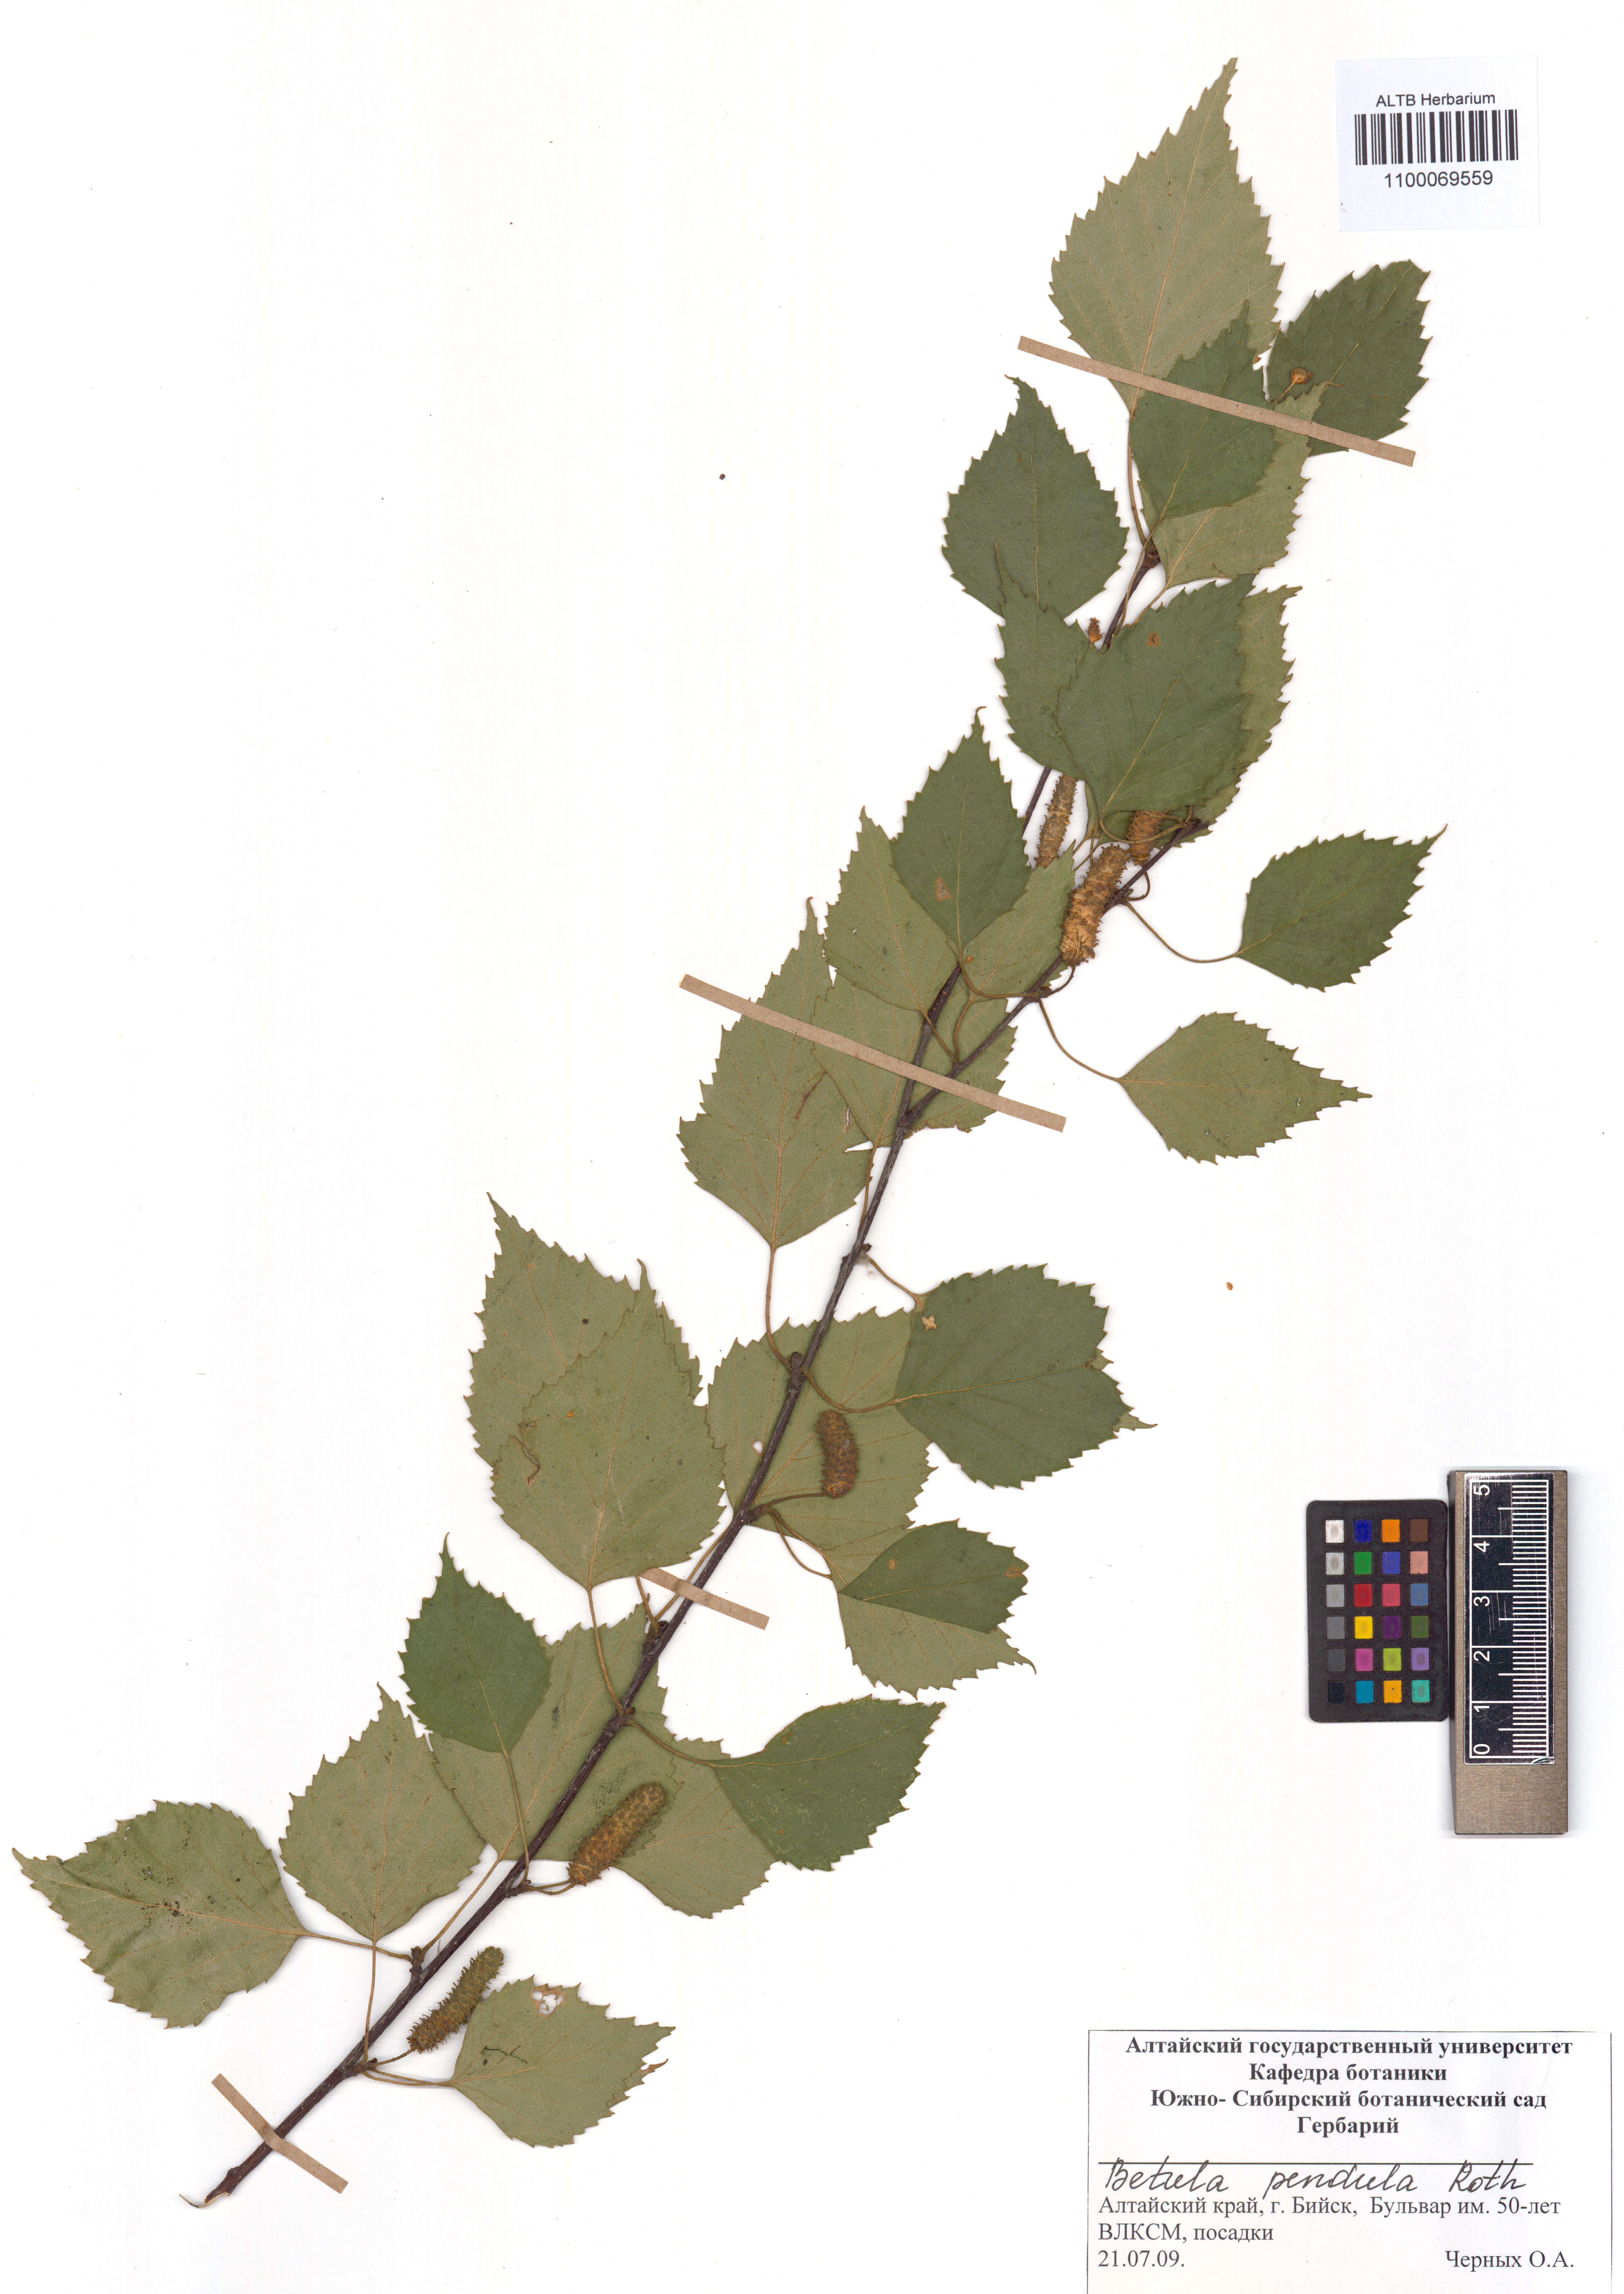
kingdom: Plantae
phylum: Tracheophyta
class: Magnoliopsida
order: Fagales
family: Betulaceae
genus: Betula
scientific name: Betula pendula
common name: Silver birch
